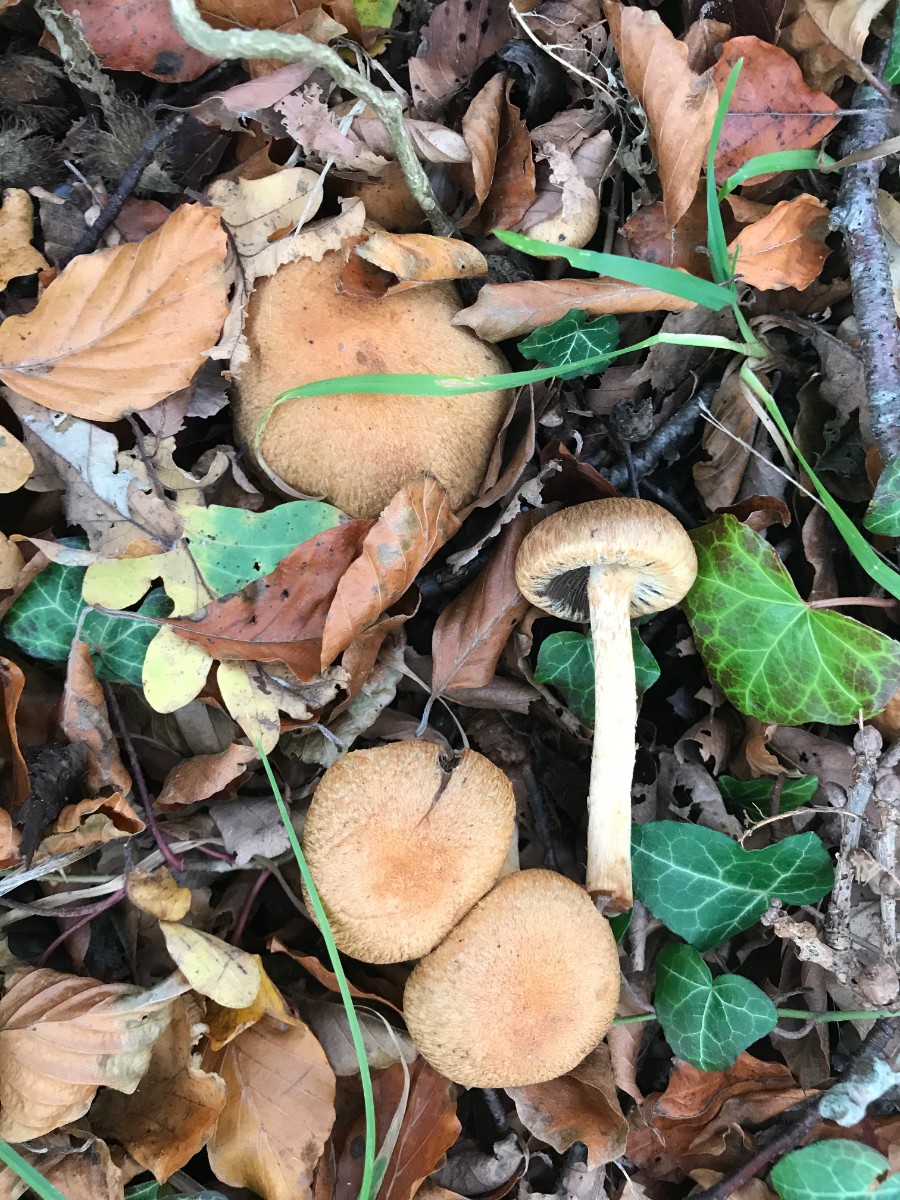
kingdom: Fungi
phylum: Basidiomycota
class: Agaricomycetes
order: Agaricales
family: Psathyrellaceae
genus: Lacrymaria
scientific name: Lacrymaria lacrymabunda
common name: grædende mørkhat
